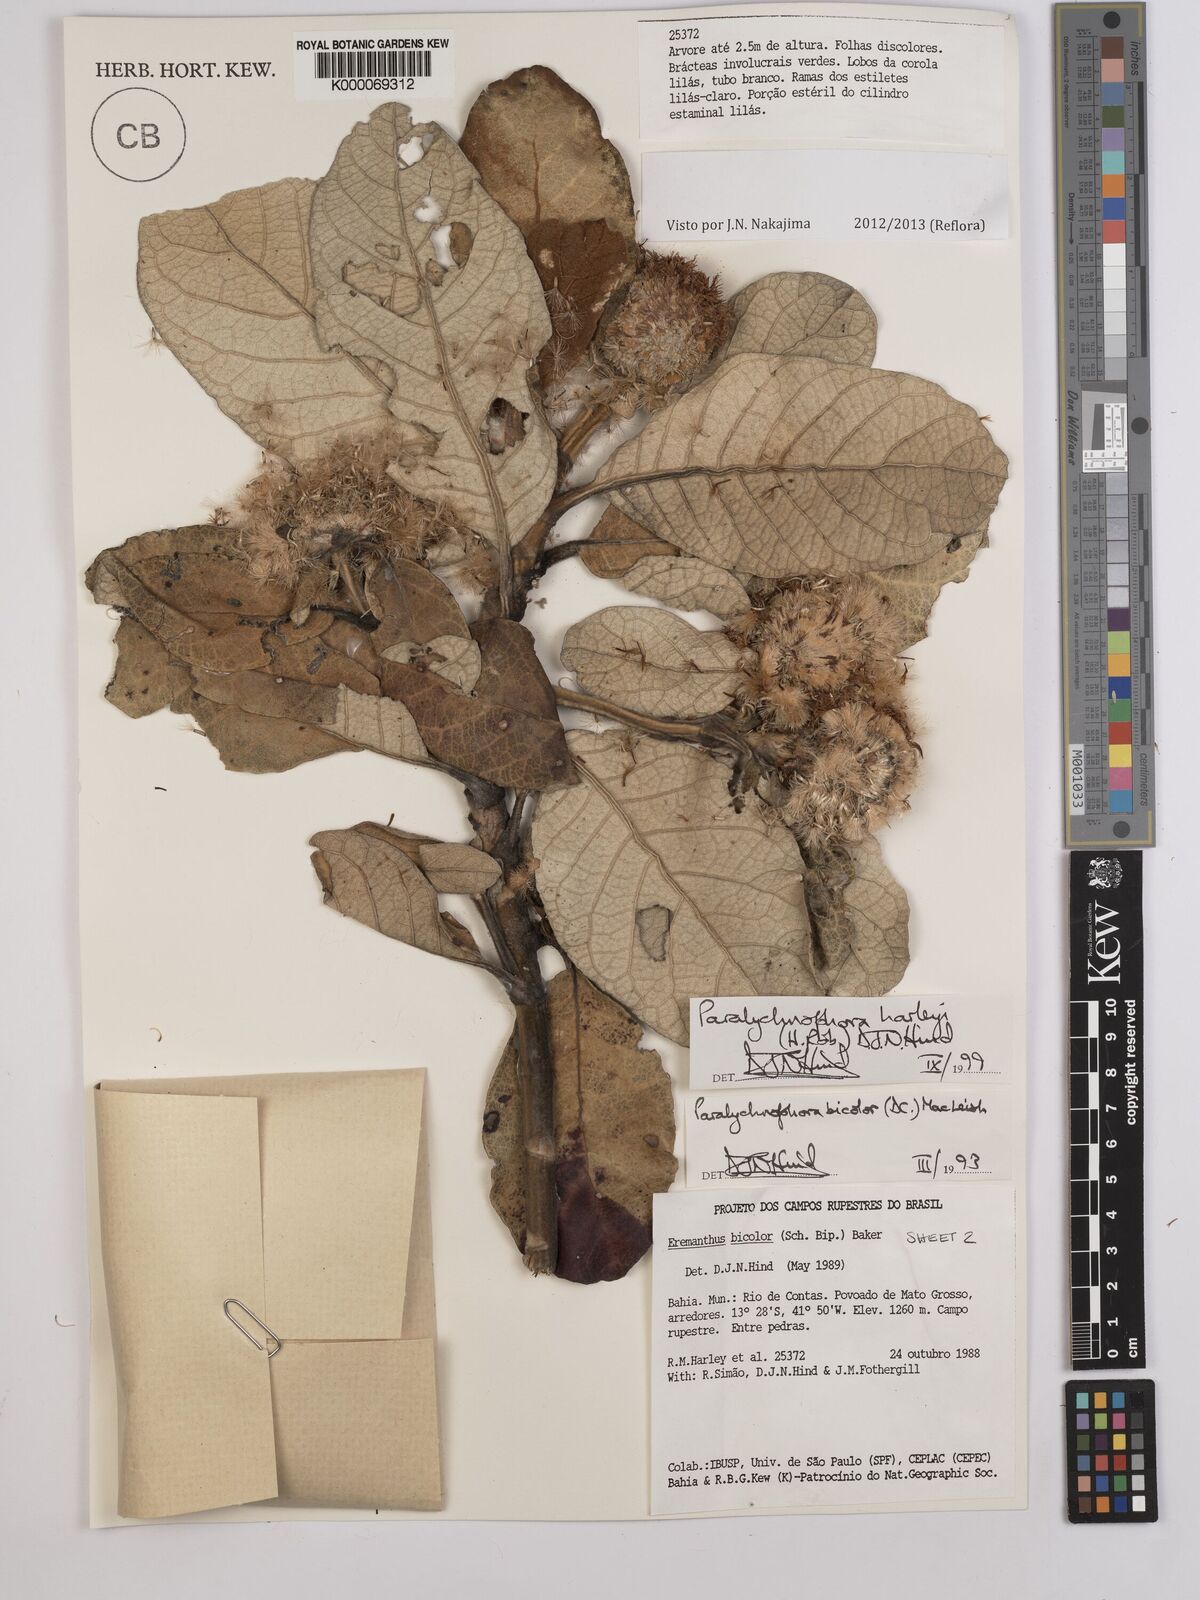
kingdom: Plantae
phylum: Tracheophyta
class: Magnoliopsida
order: Asterales
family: Asteraceae
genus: Paralychnophora
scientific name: Paralychnophora harleyi
